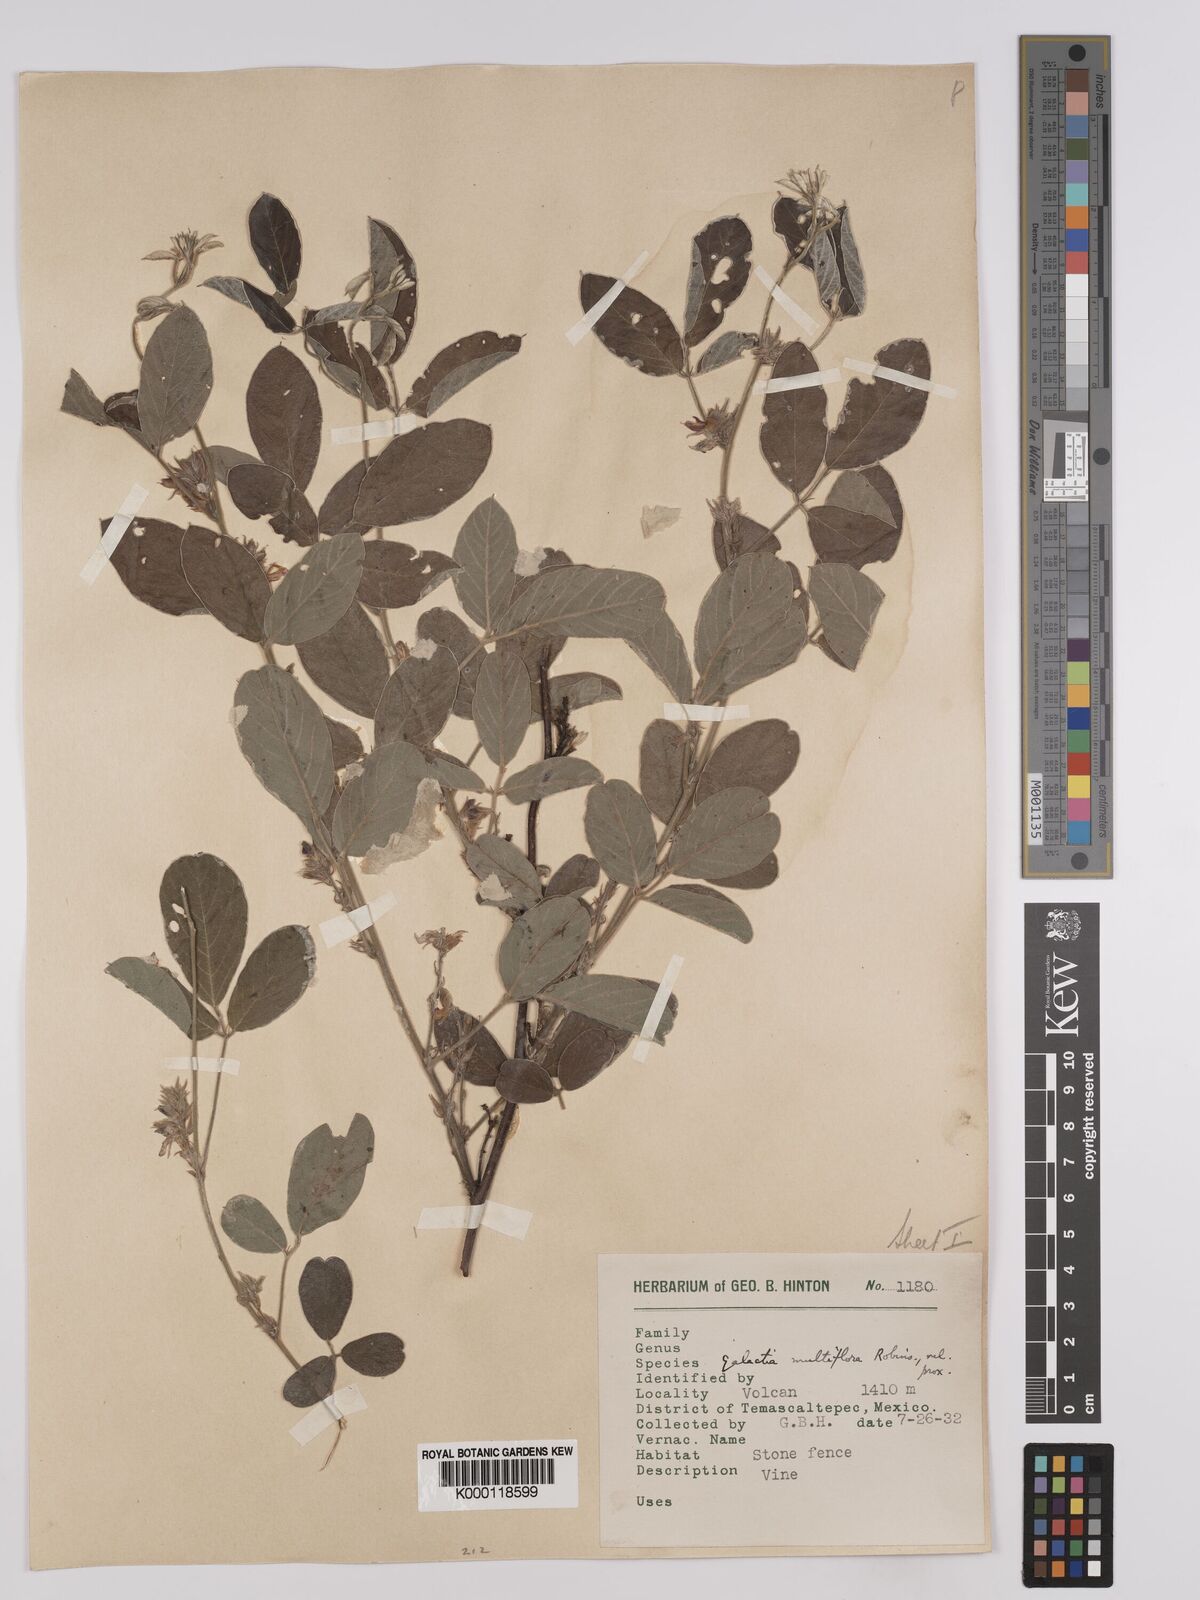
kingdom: Plantae
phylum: Tracheophyta
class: Magnoliopsida
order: Fabales
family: Fabaceae
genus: Galactia
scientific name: Galactia multiflora
